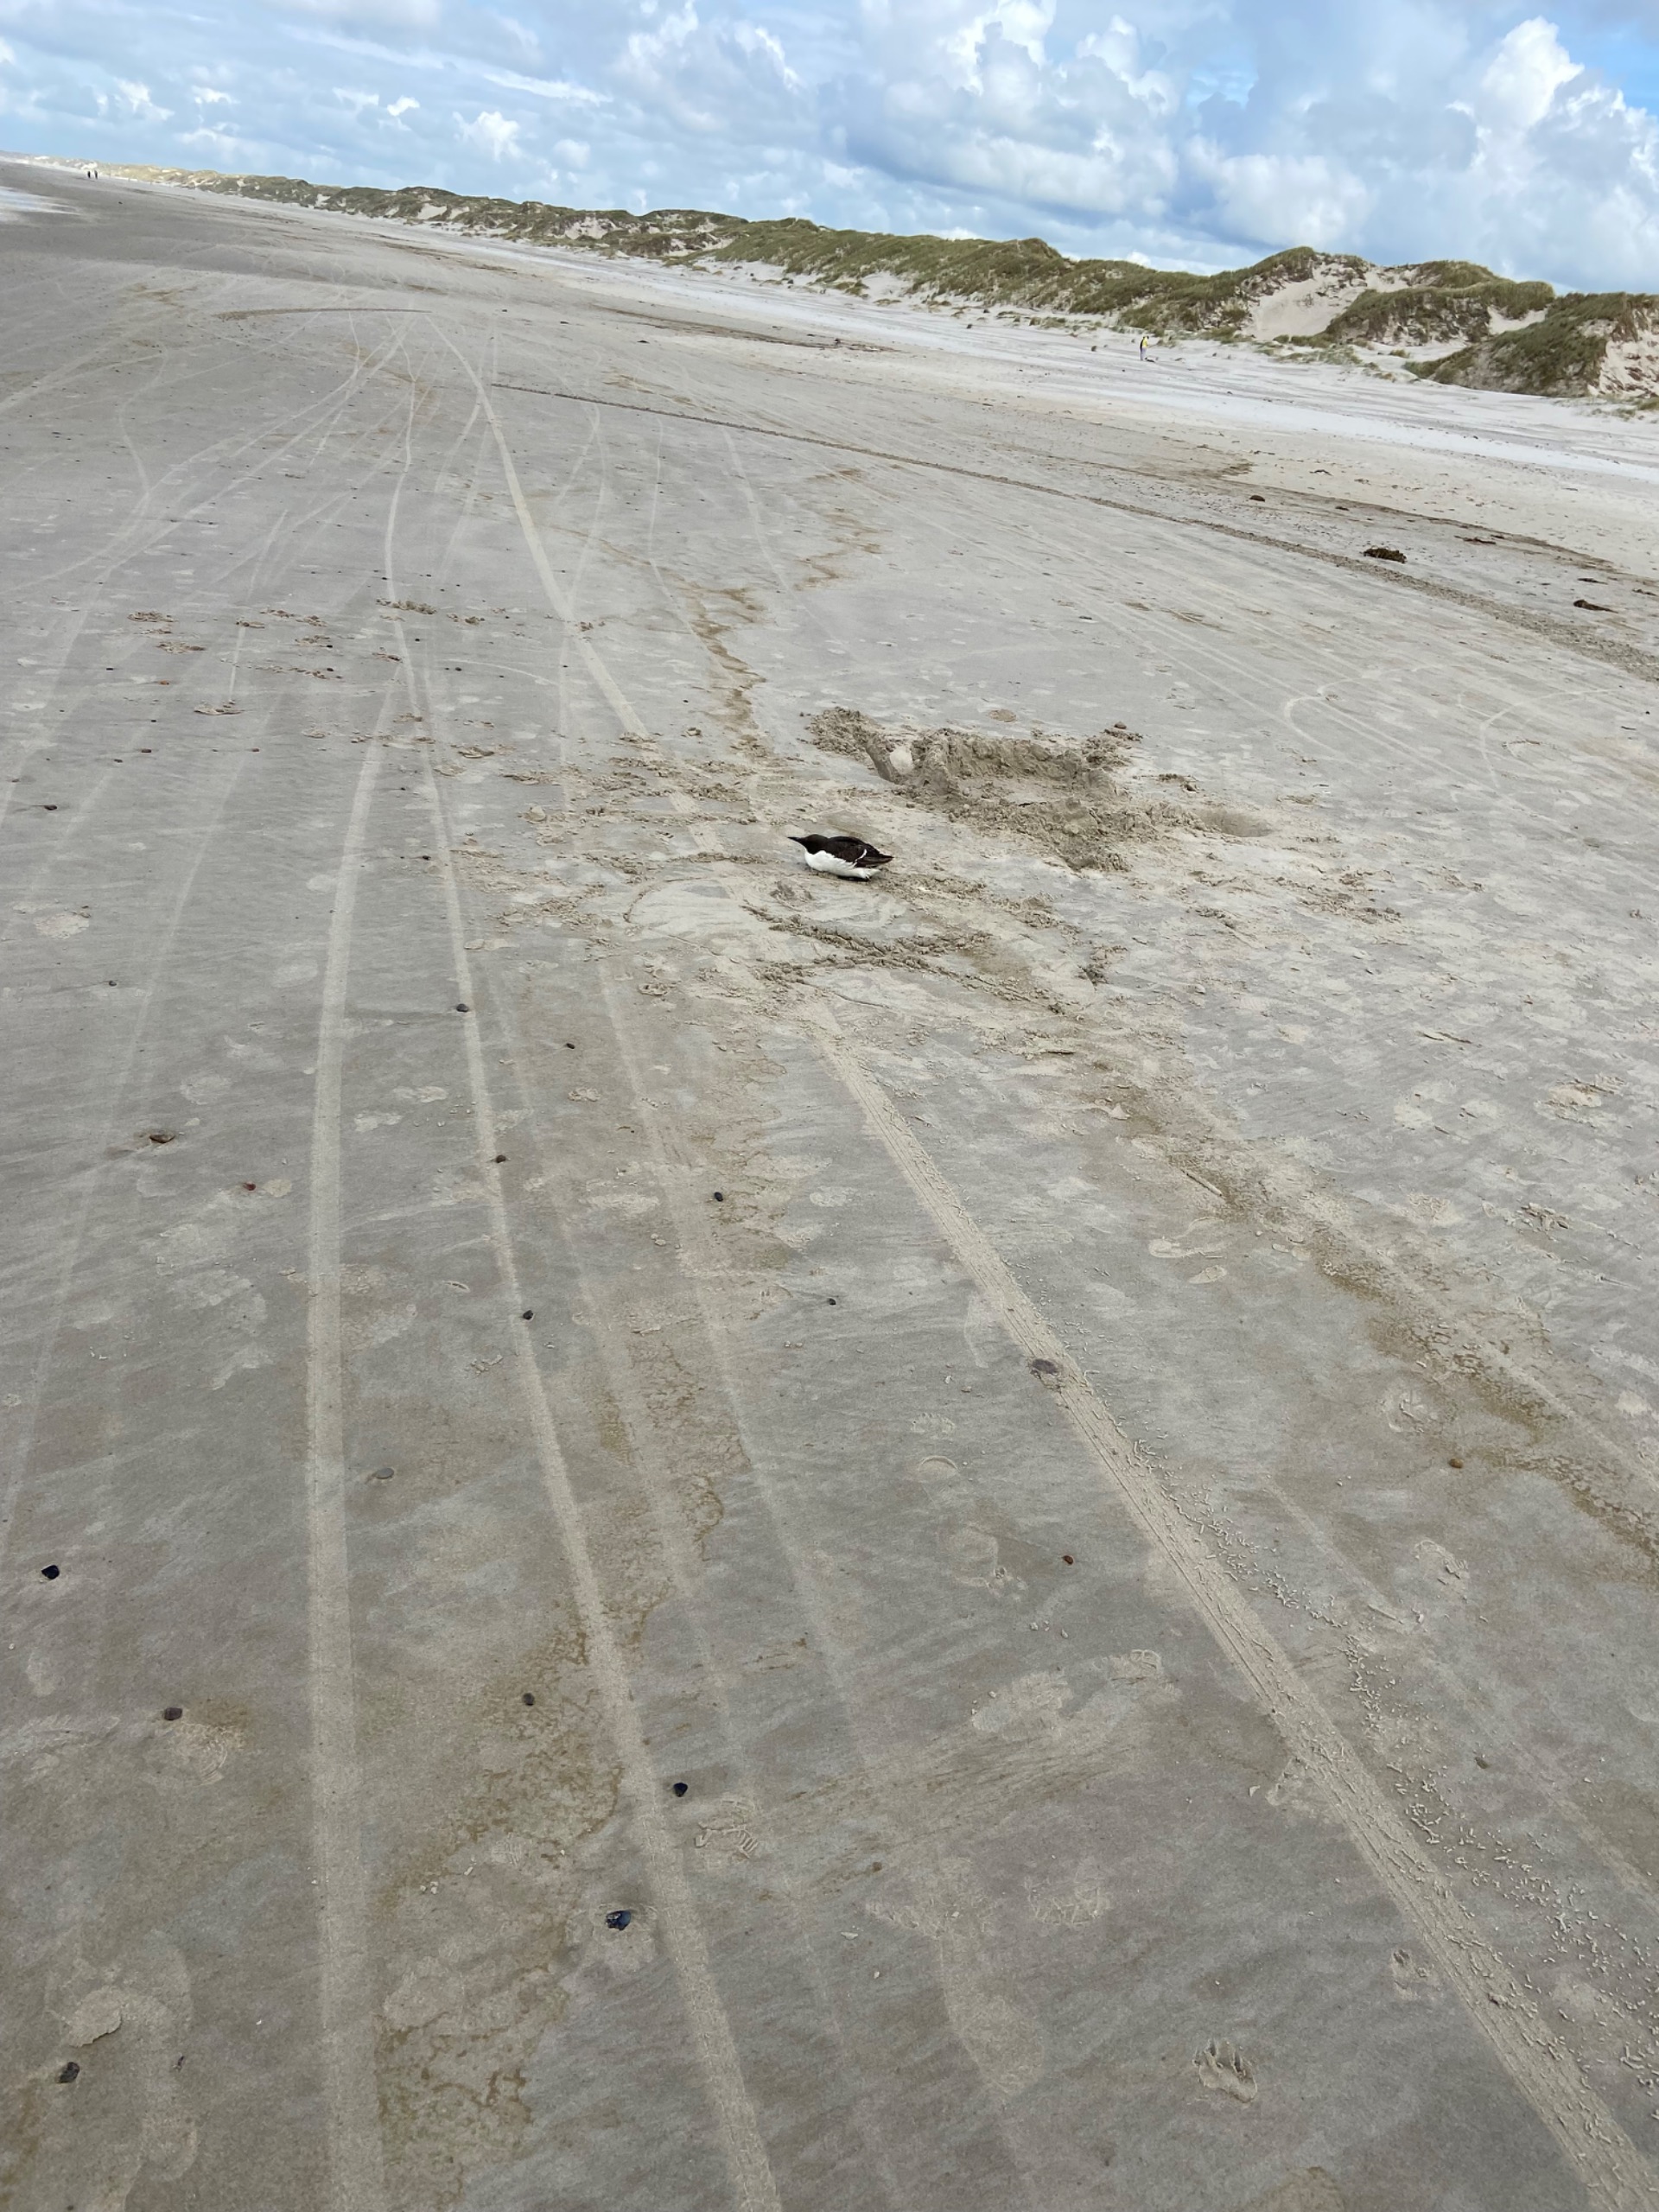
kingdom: Animalia
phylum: Chordata
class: Aves
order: Charadriiformes
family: Alcidae
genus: Uria
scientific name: Uria aalge
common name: Lomvie
